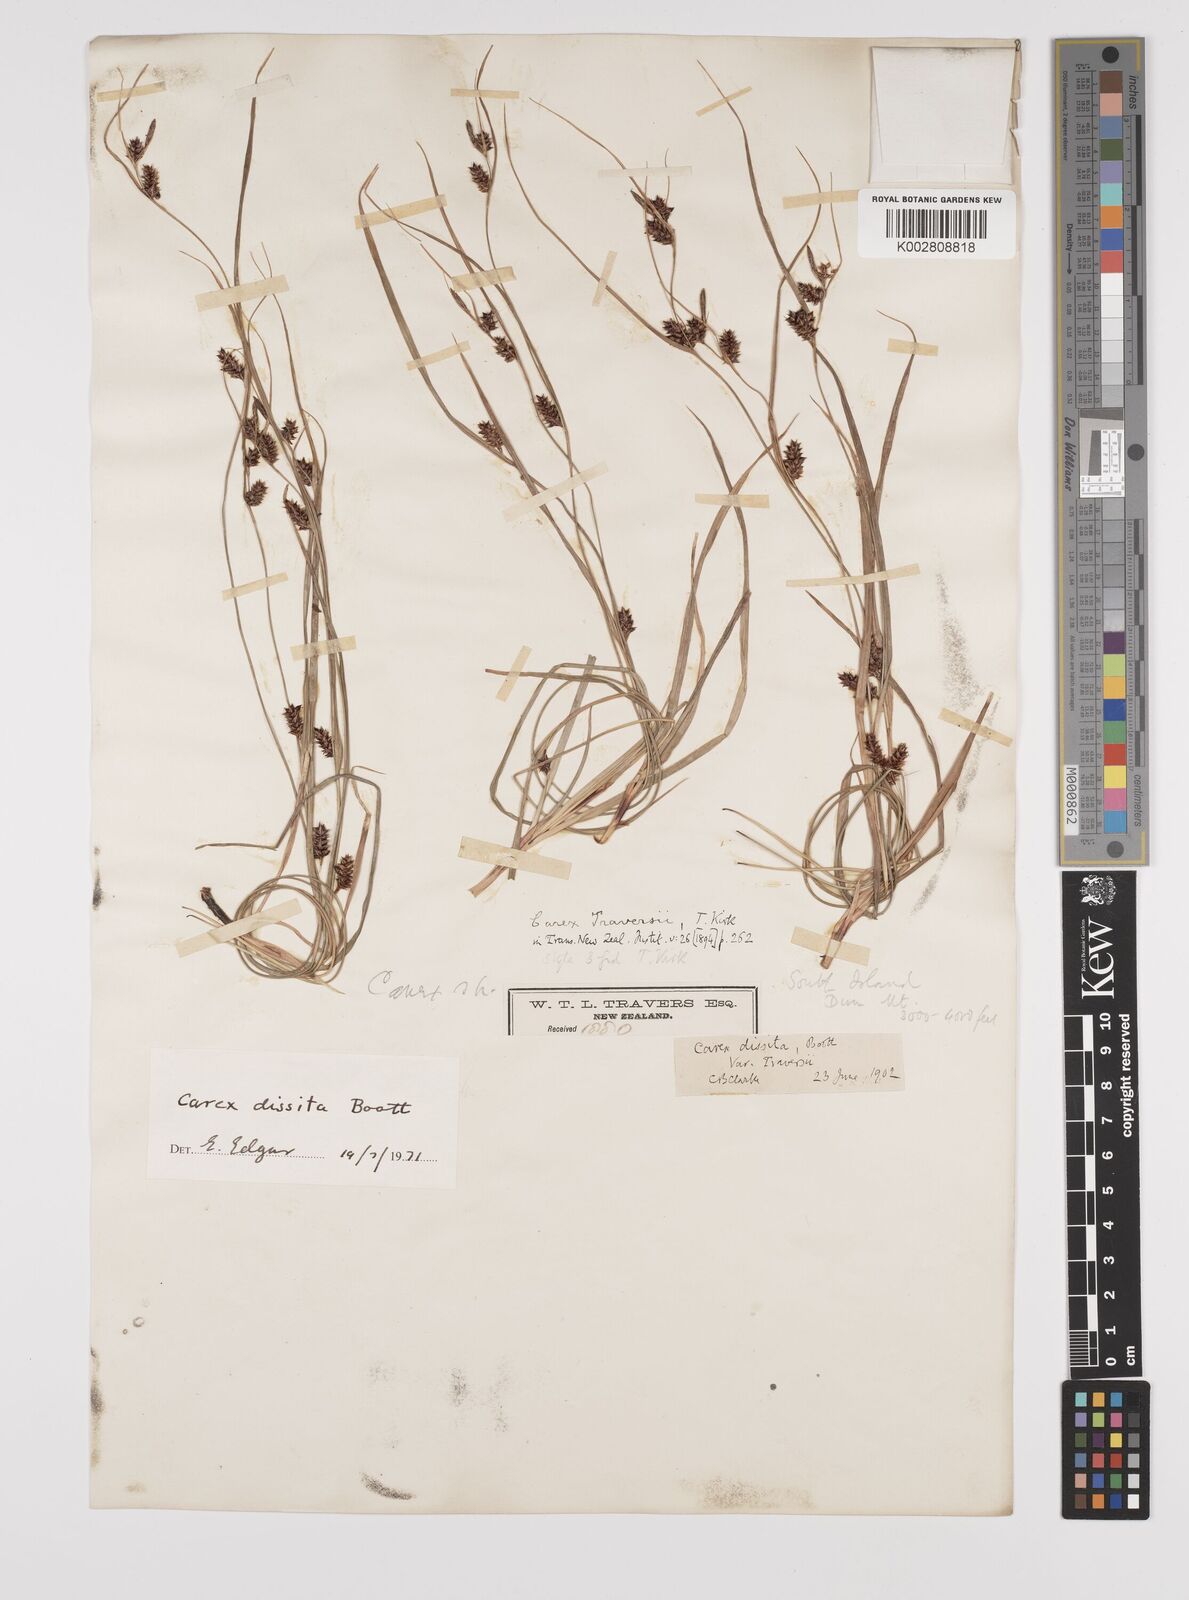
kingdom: Plantae
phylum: Tracheophyta
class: Liliopsida
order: Poales
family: Cyperaceae
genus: Carex
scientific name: Carex traversii
